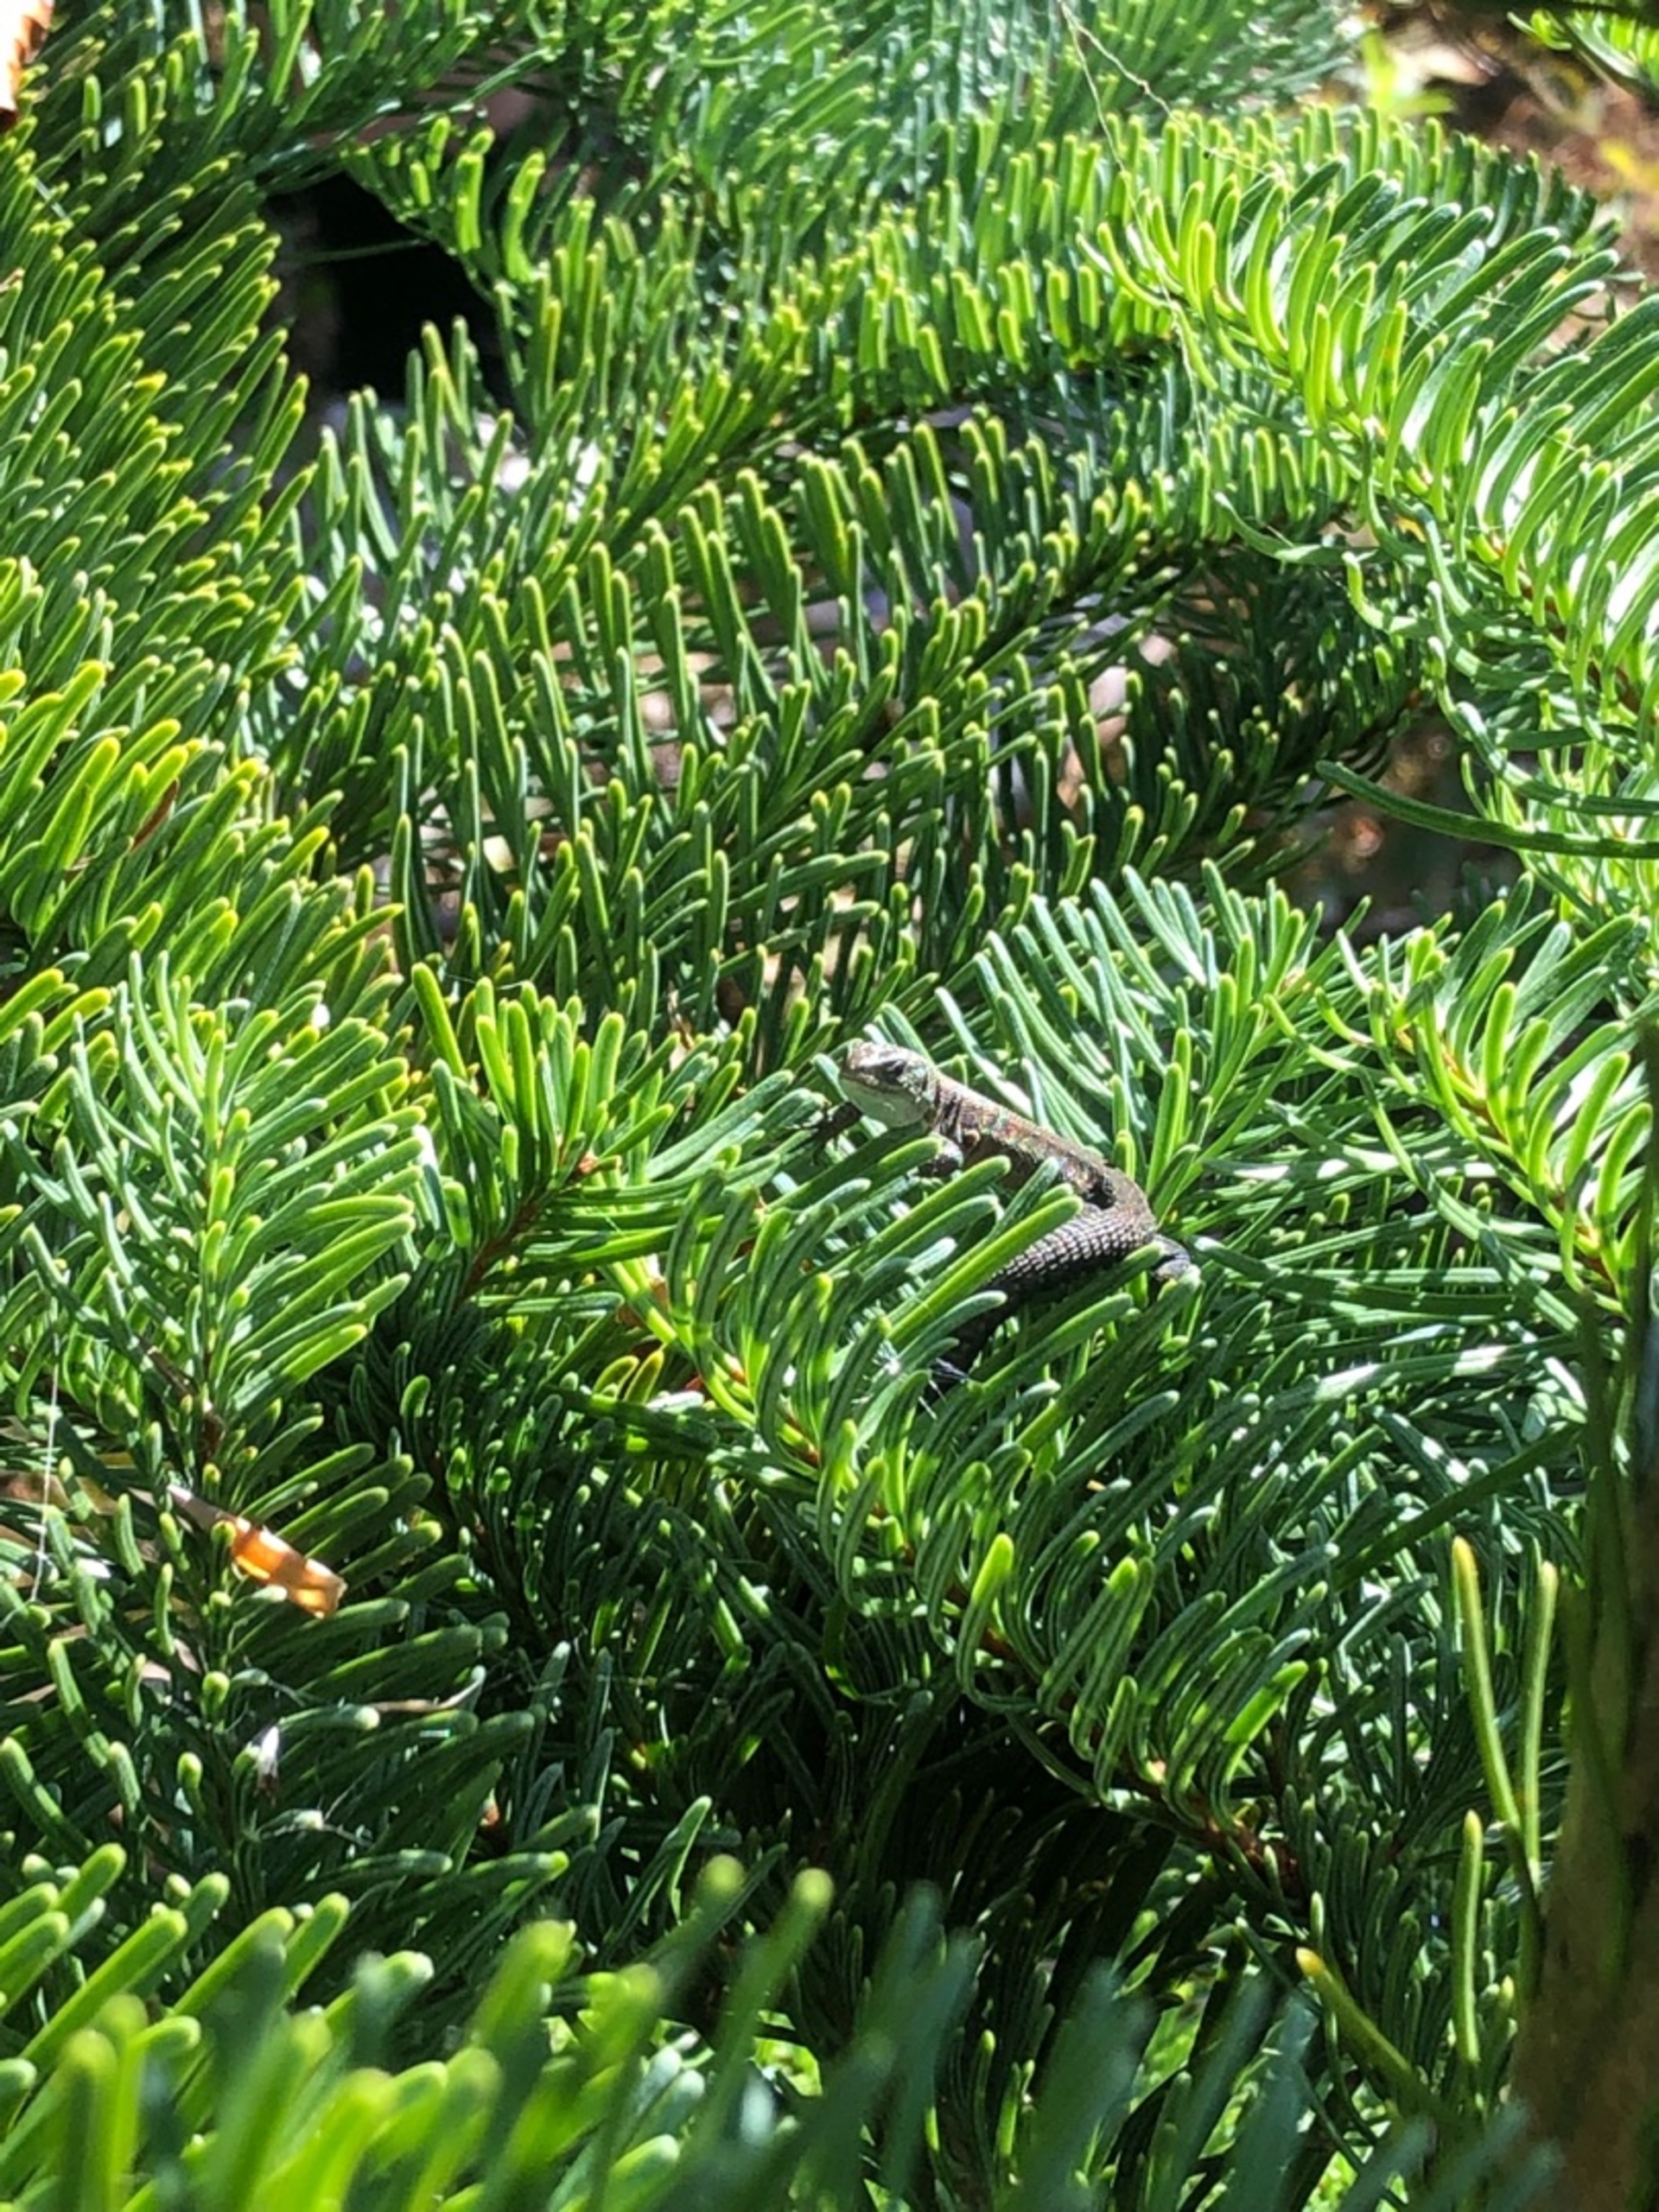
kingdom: Animalia
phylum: Chordata
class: Squamata
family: Lacertidae
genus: Zootoca
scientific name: Zootoca vivipara
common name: Skovfirben
